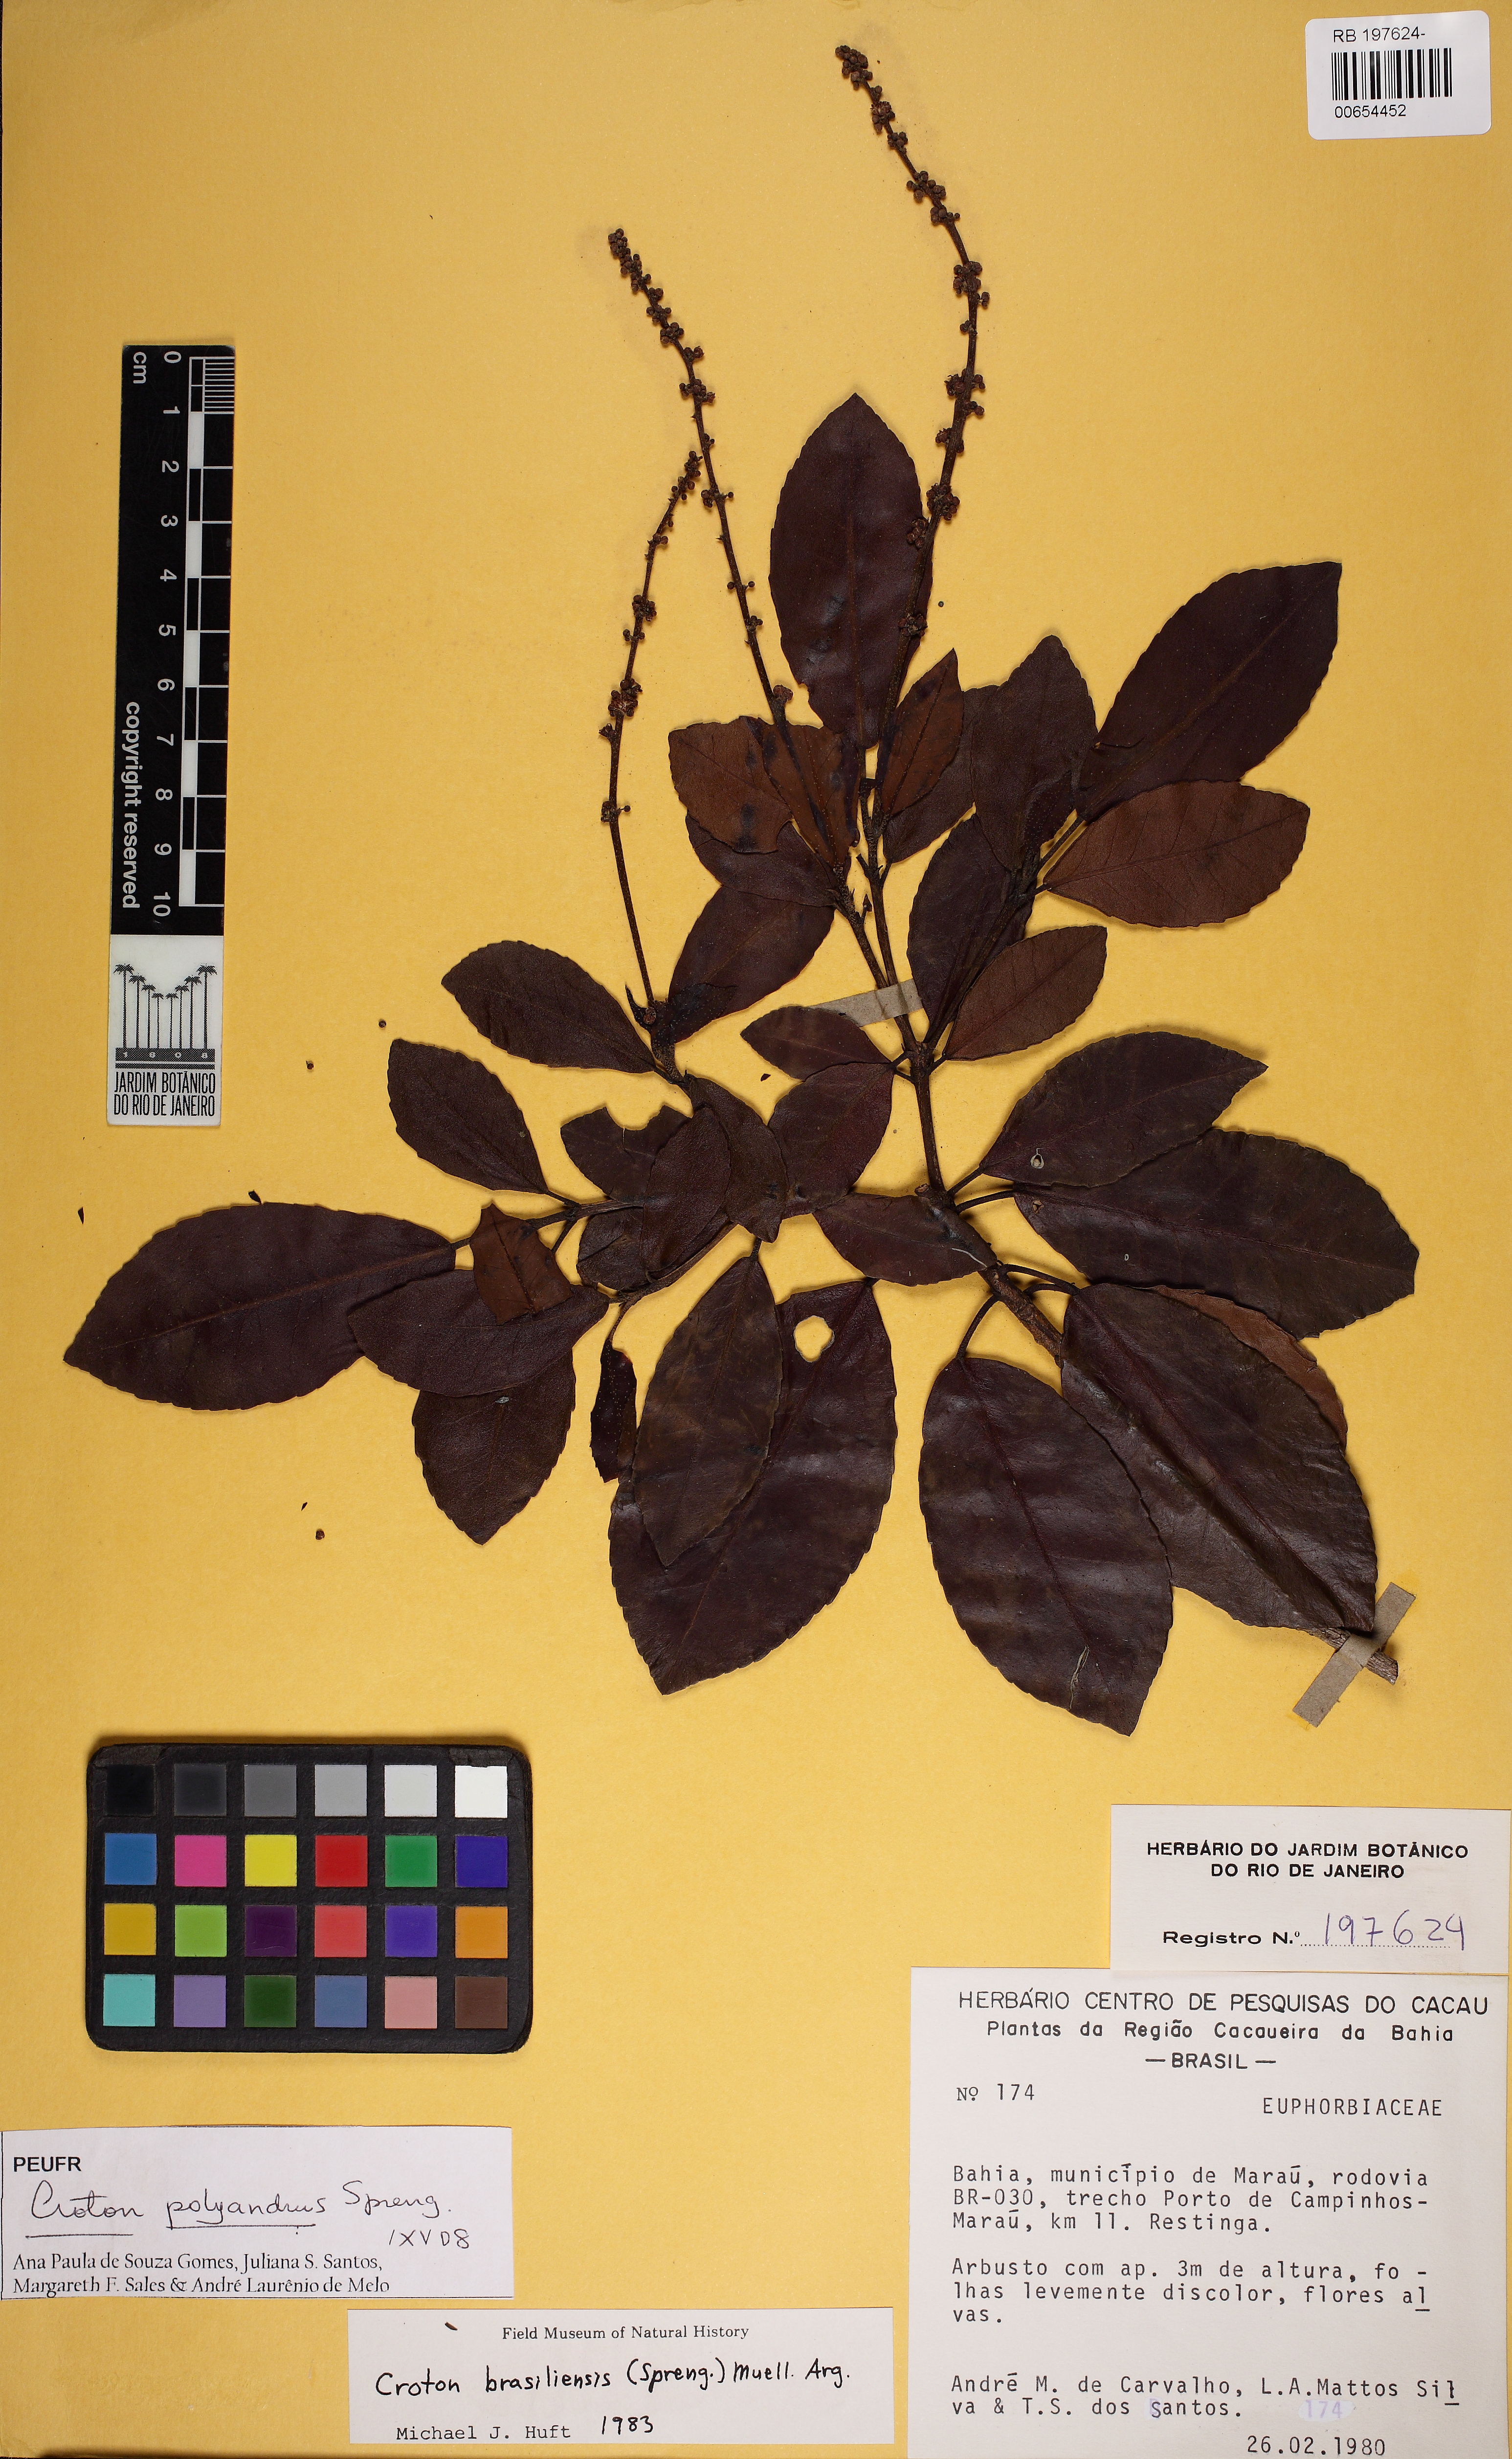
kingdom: Plantae
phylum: Tracheophyta
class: Magnoliopsida
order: Malpighiales
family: Euphorbiaceae
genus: Croton
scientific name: Croton polyandrus
